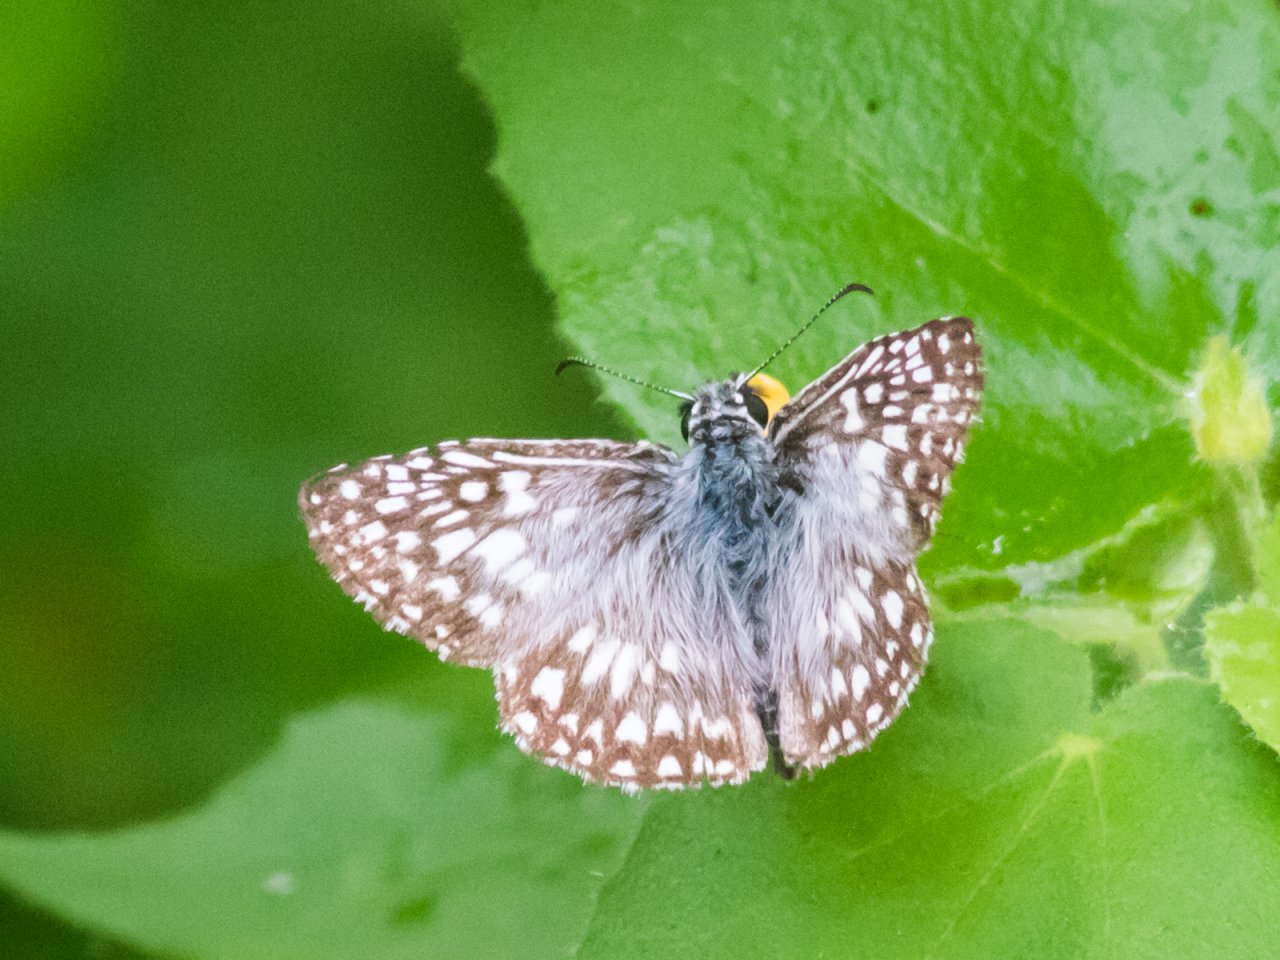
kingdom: Animalia
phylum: Arthropoda
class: Insecta
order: Lepidoptera
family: Hesperiidae
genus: Pyrgus
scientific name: Pyrgus oileus
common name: Tropical Checkered-Skipper
